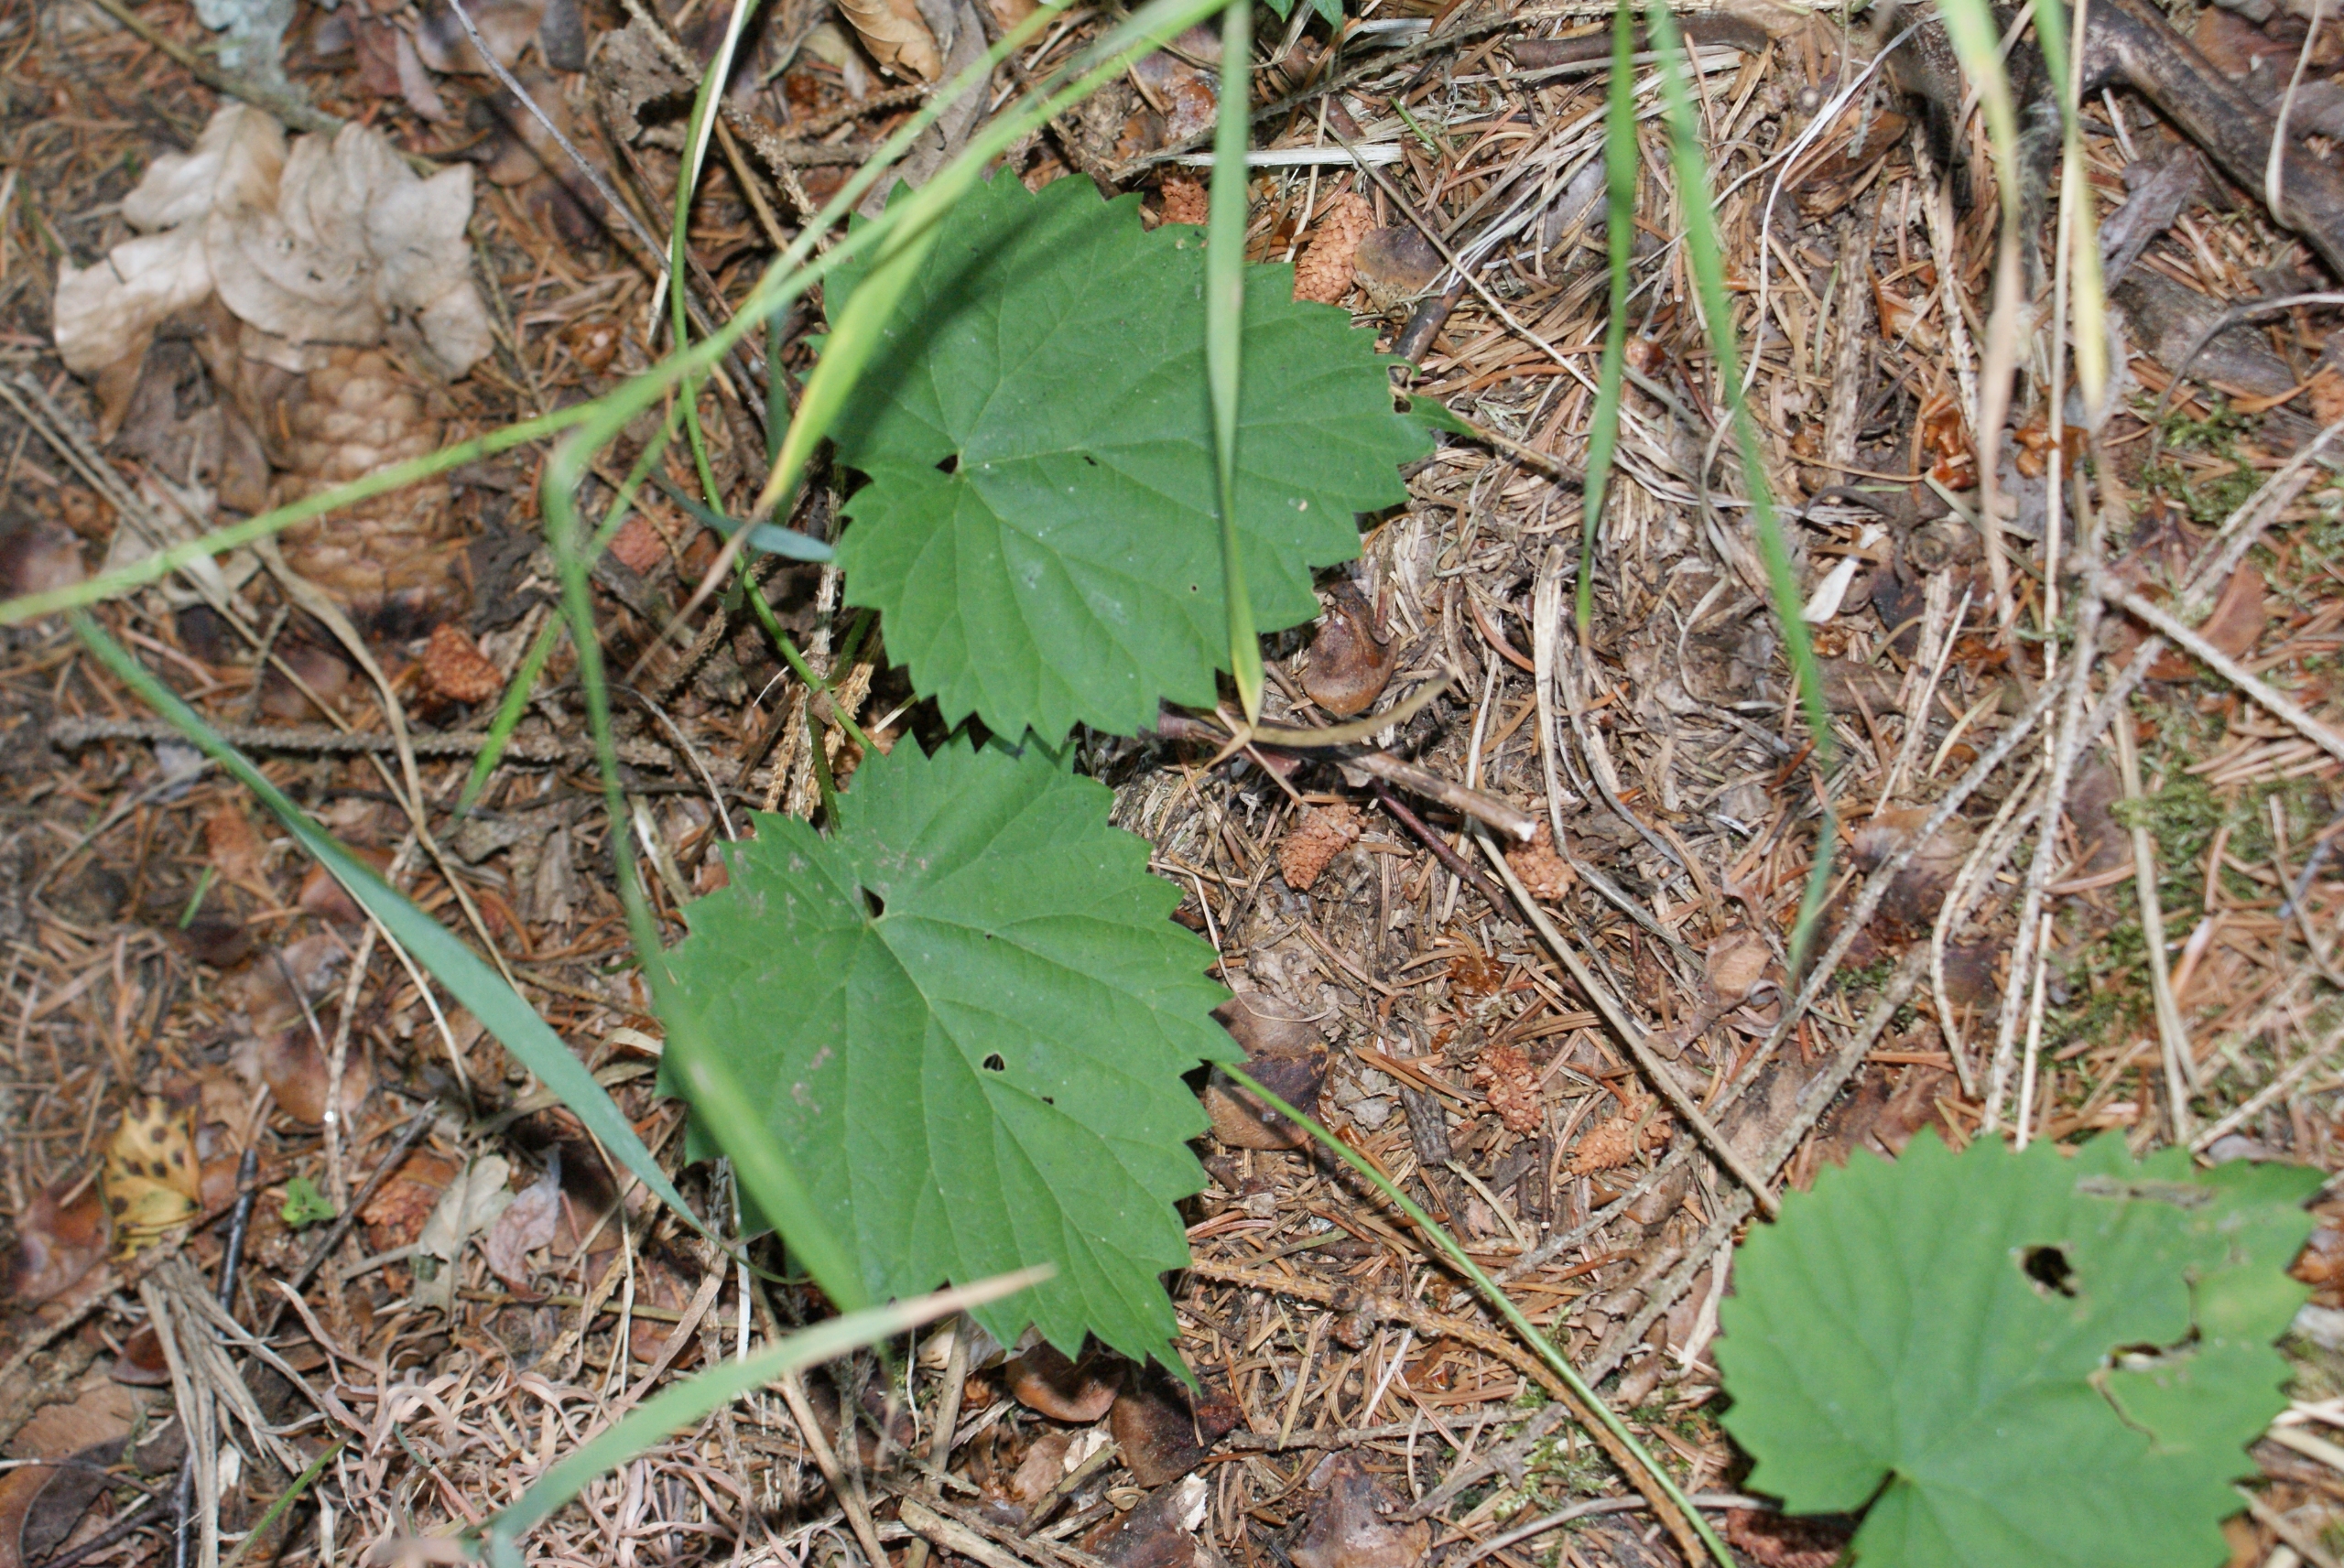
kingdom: Plantae
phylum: Tracheophyta
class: Magnoliopsida
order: Rosales
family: Cannabaceae
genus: Humulus
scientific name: Humulus lupulus
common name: Humle
